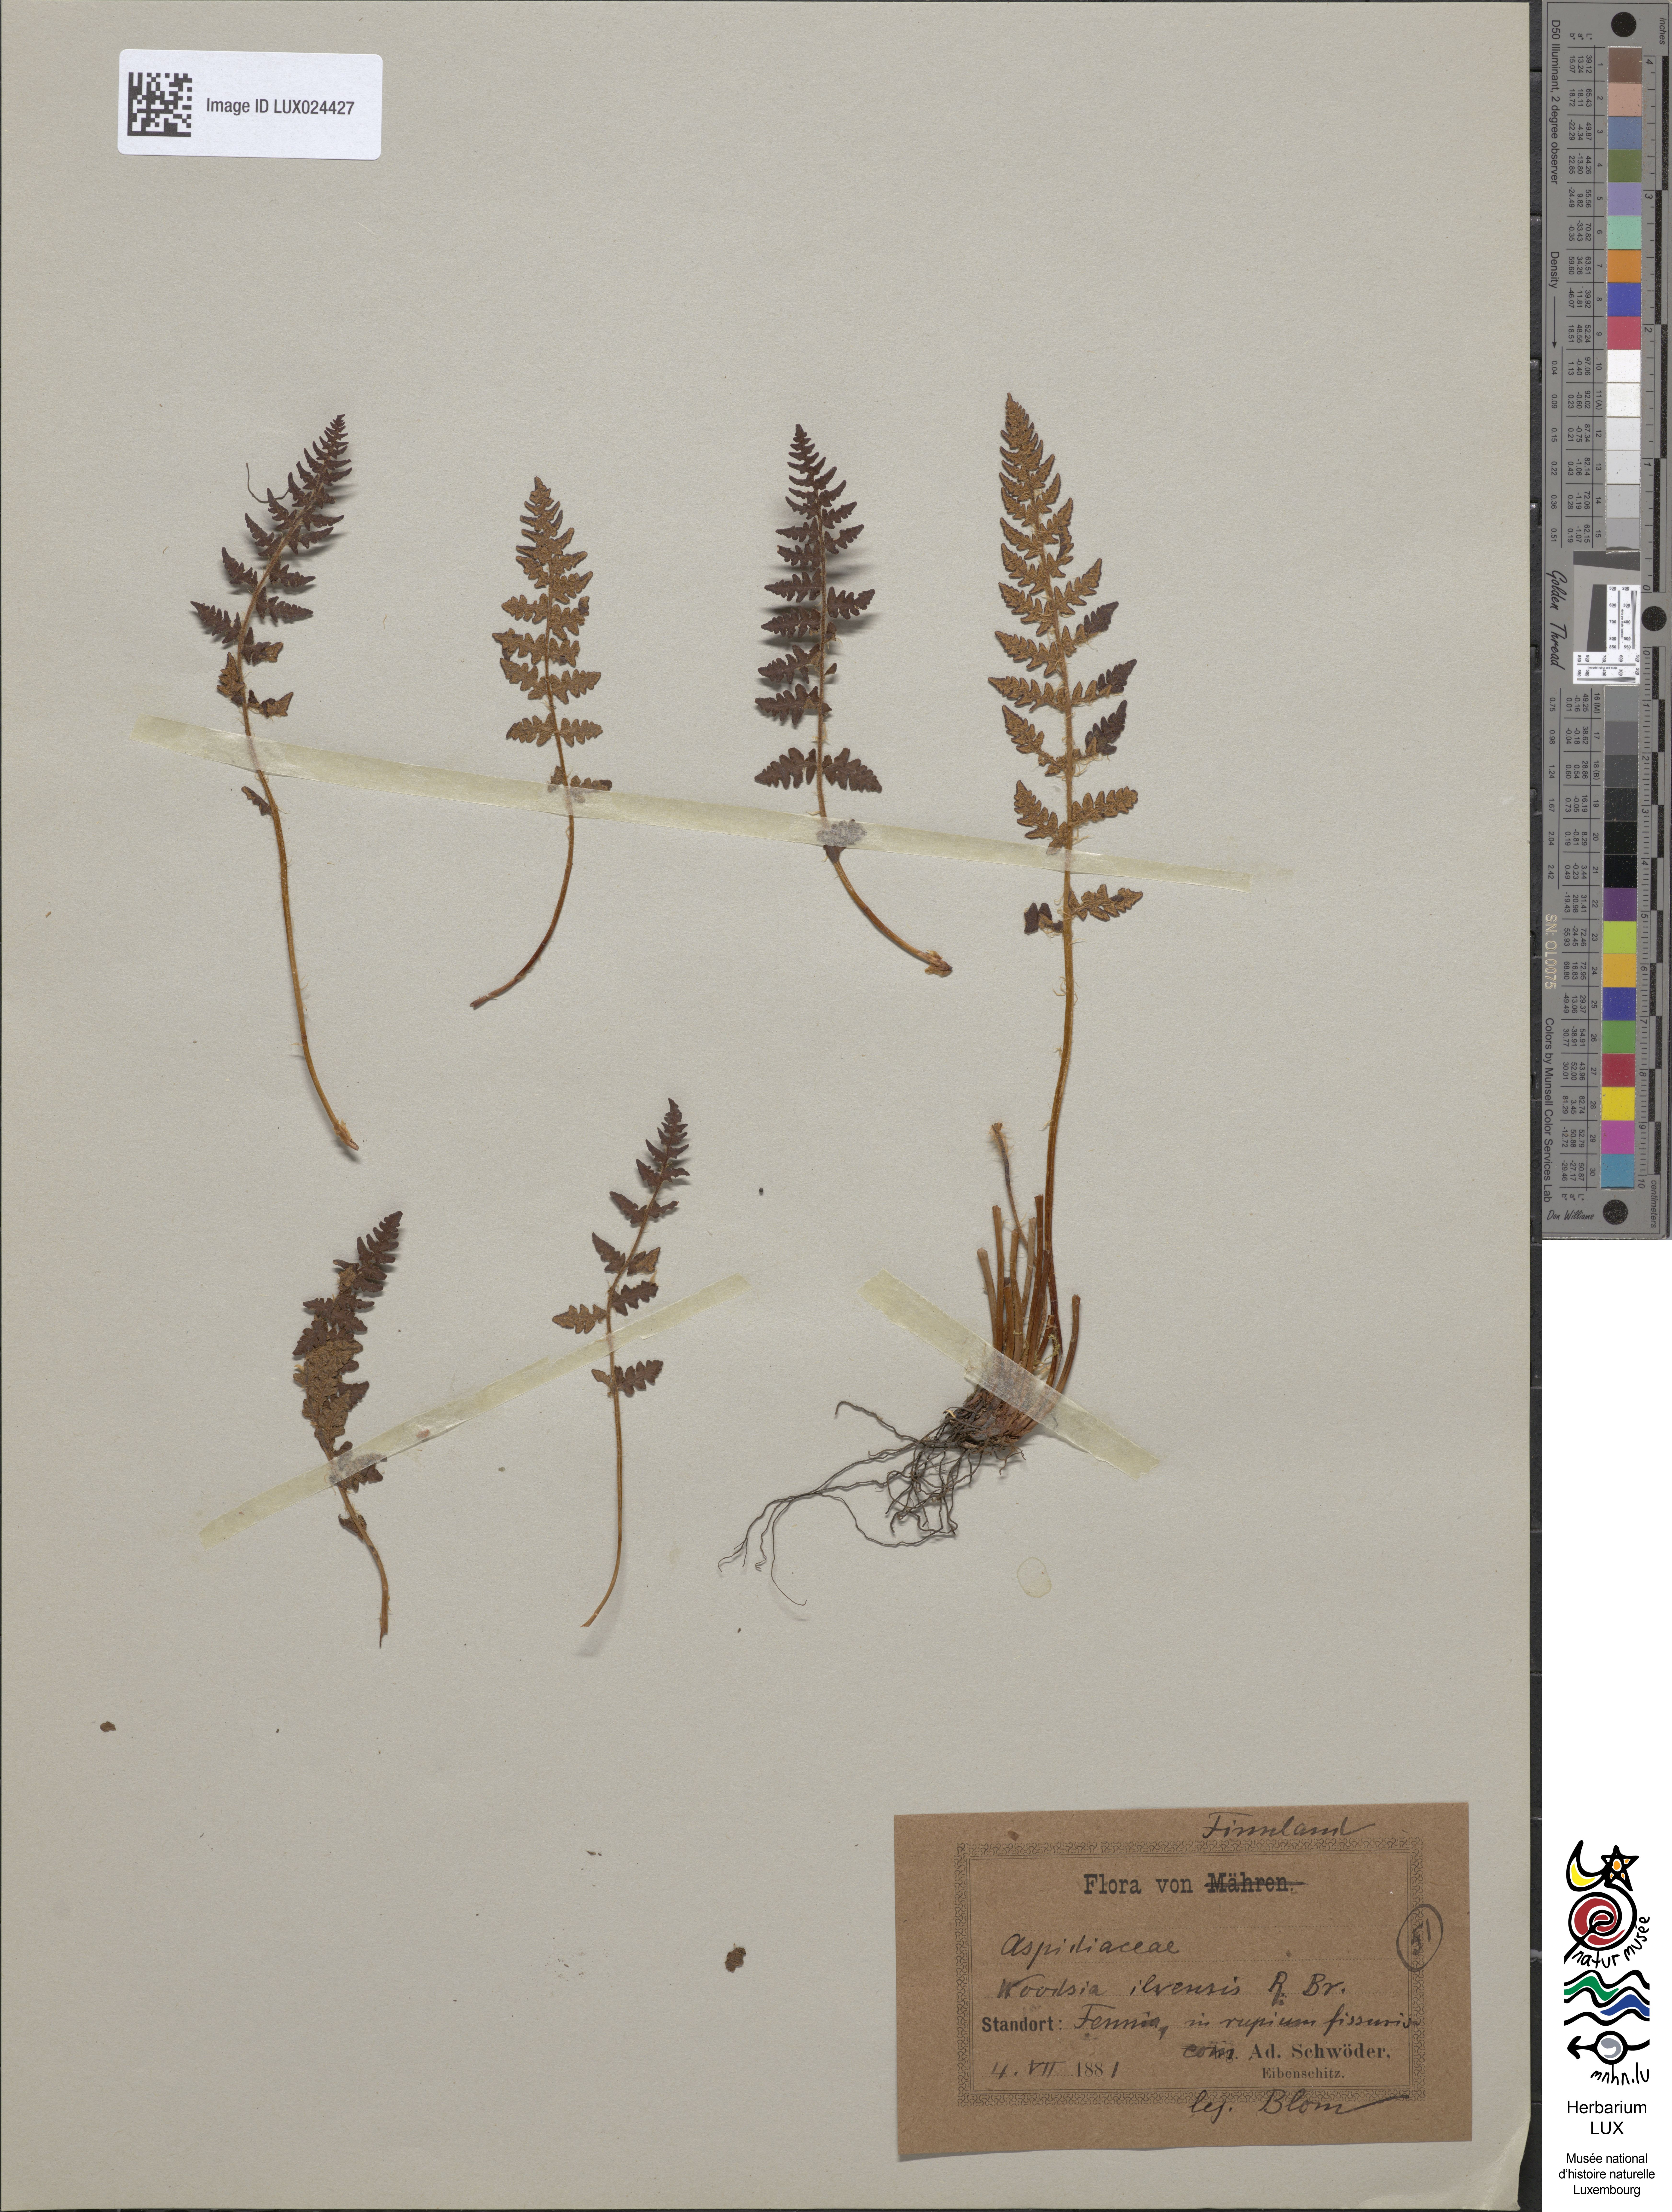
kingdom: Plantae
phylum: Tracheophyta
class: Polypodiopsida
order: Polypodiales
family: Woodsiaceae
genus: Woodsia
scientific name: Woodsia ilvensis
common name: Fragrant woodsia
